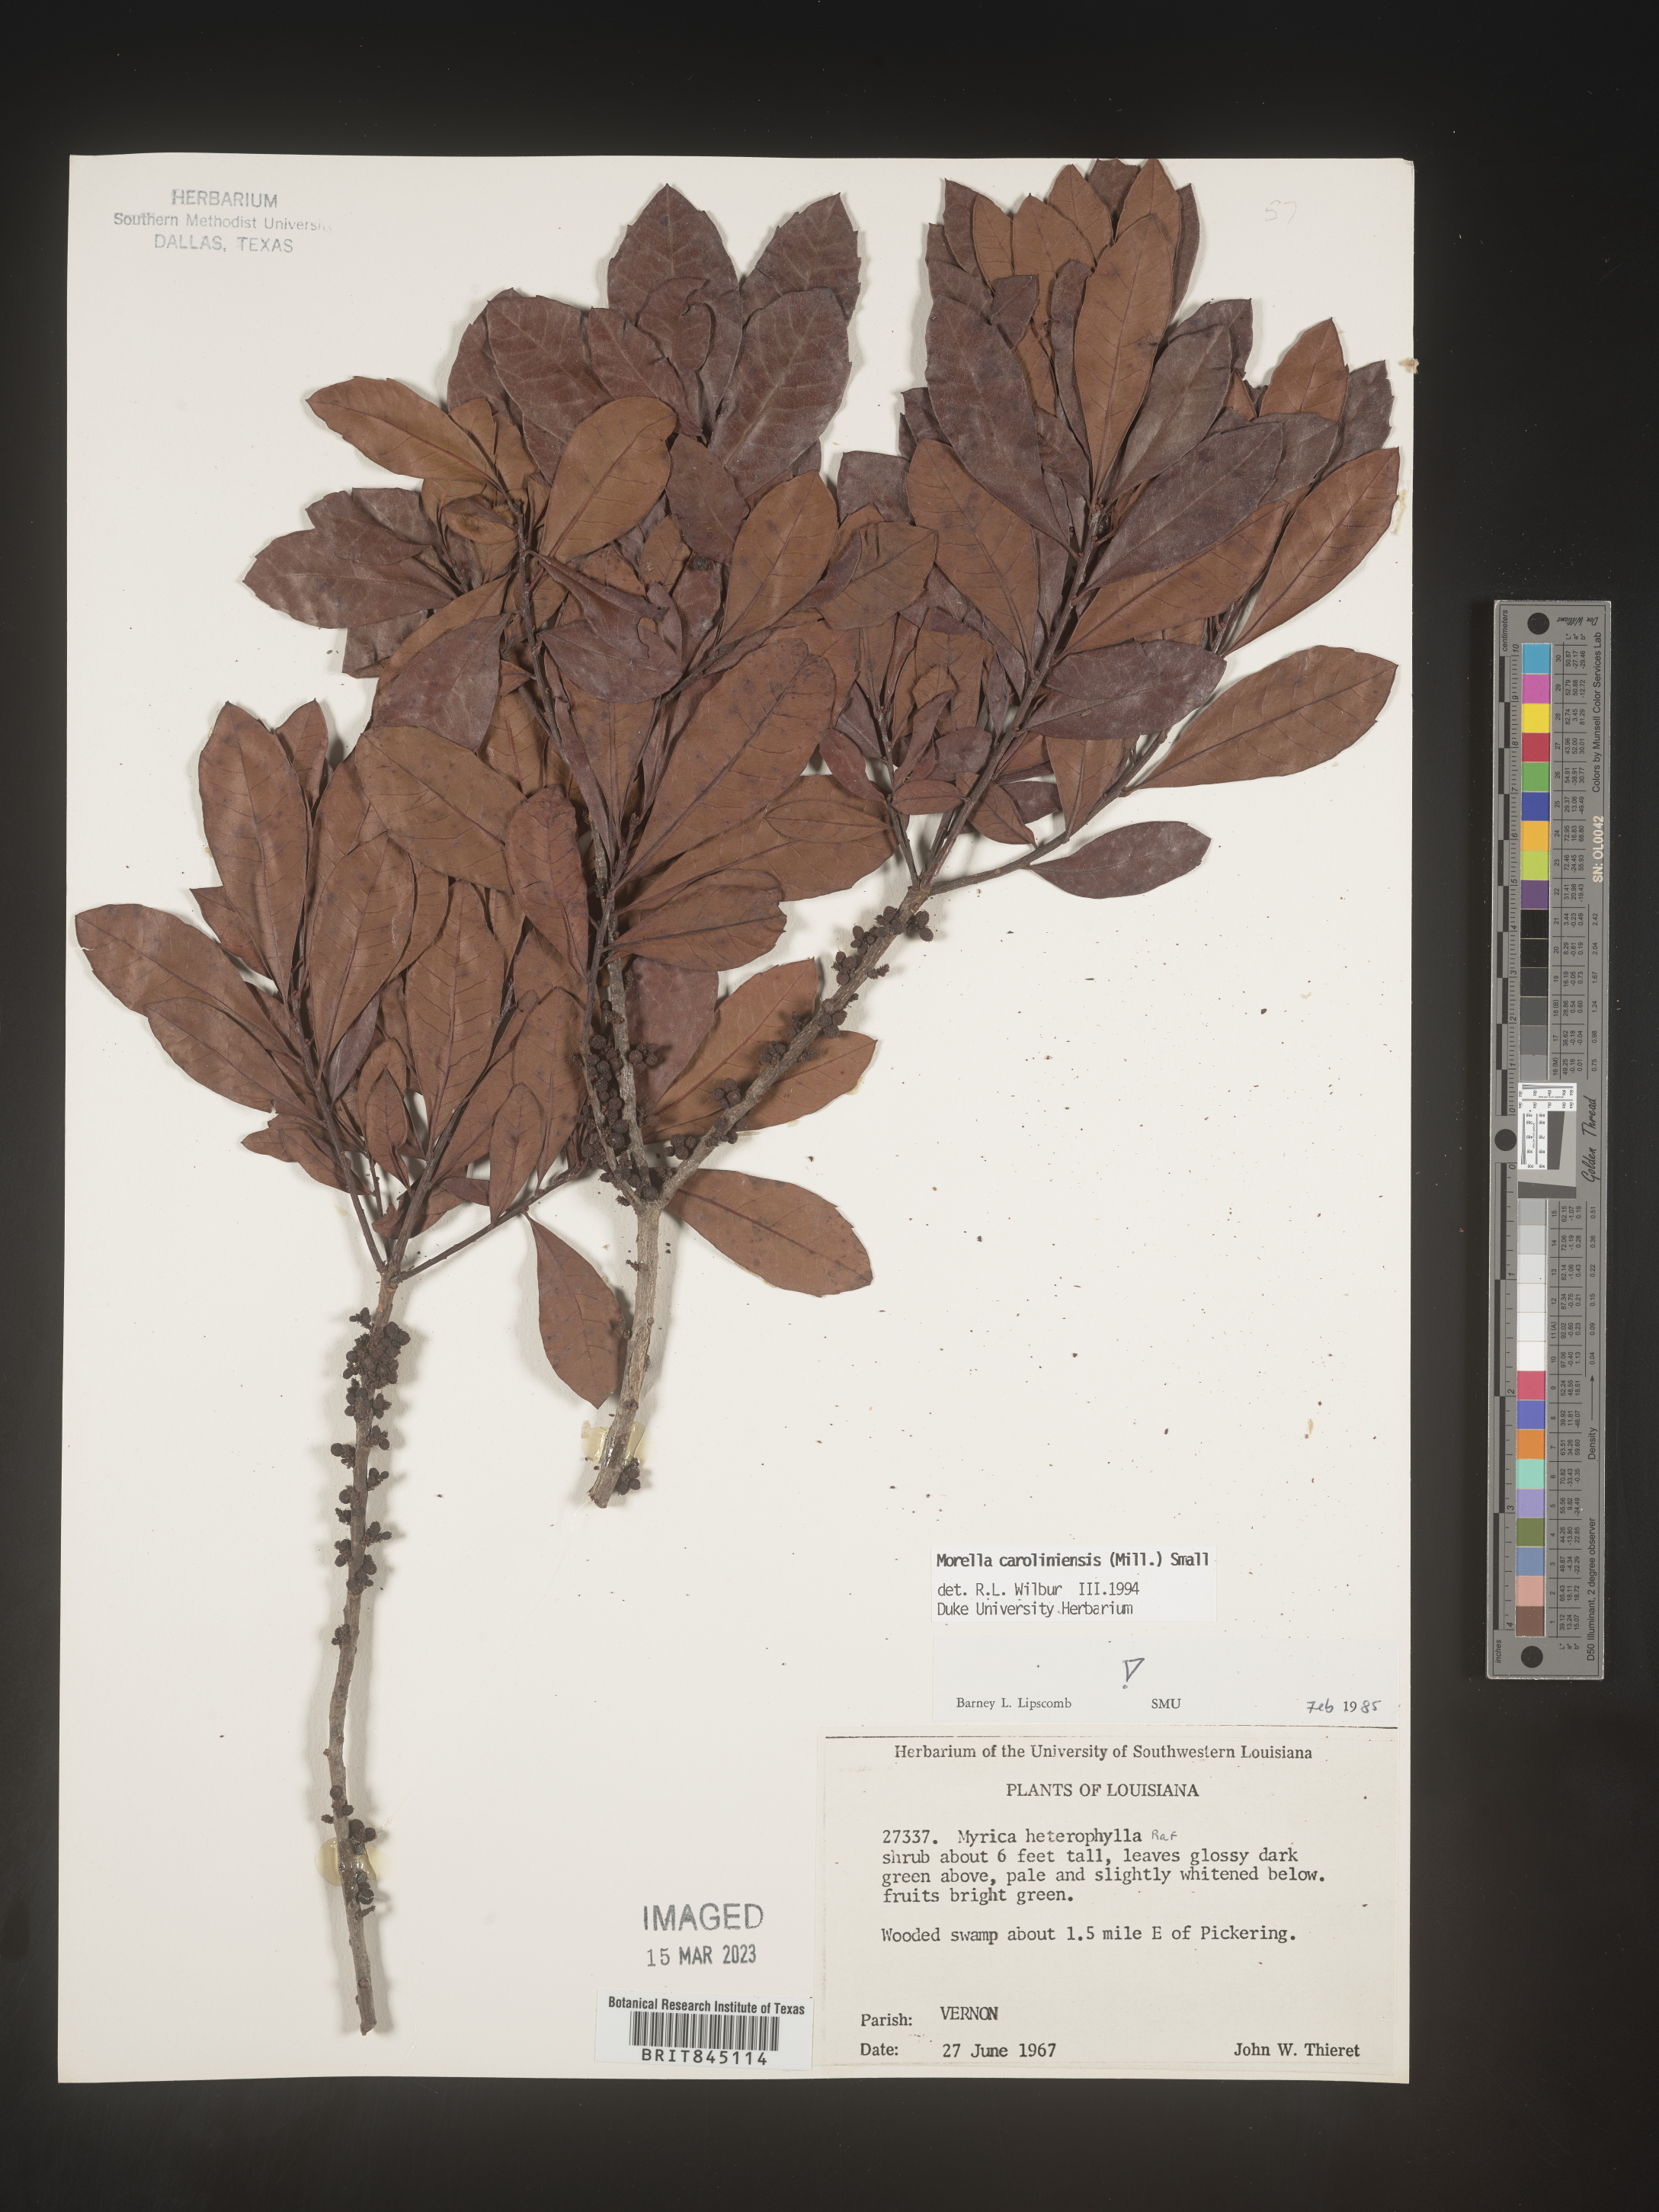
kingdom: Plantae
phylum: Tracheophyta
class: Magnoliopsida
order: Fagales
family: Myricaceae
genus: Morella
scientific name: Morella caroliniensis
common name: Evergreen bayberry
